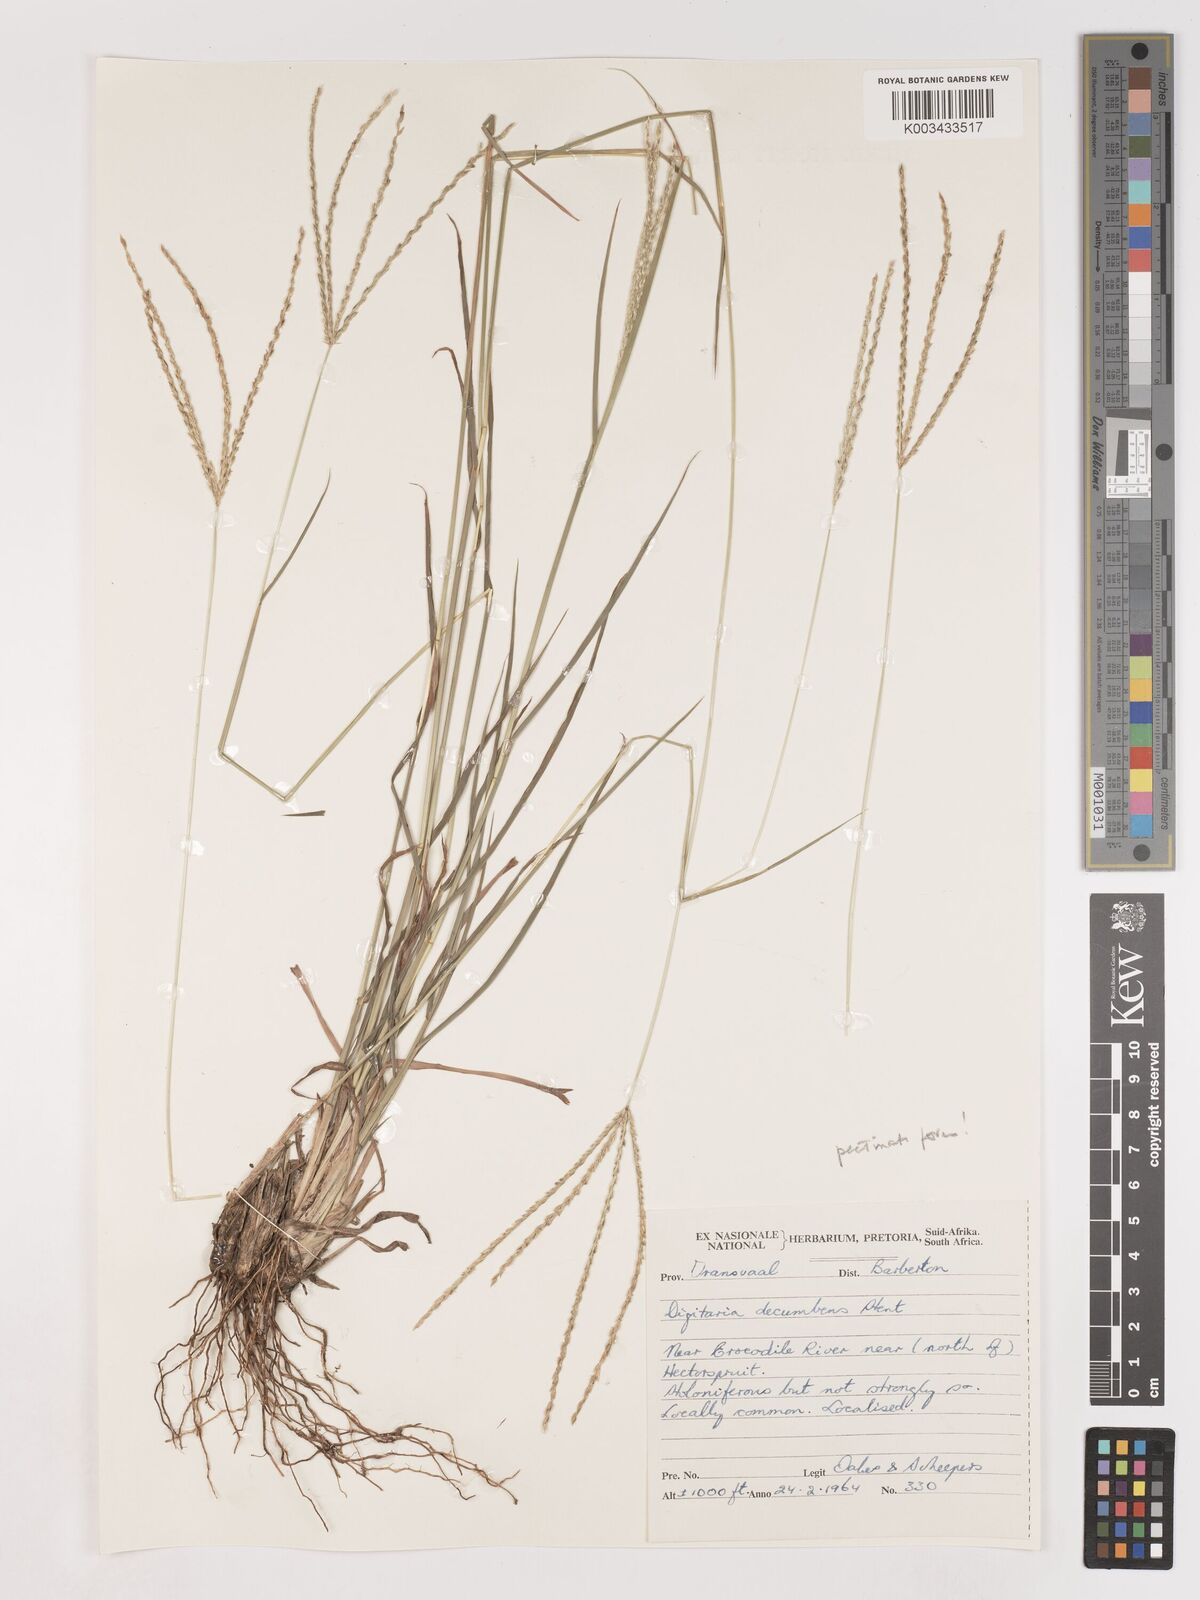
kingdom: Plantae
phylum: Tracheophyta
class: Liliopsida
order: Poales
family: Poaceae
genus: Digitaria
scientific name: Digitaria eriantha
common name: Digitgrass
